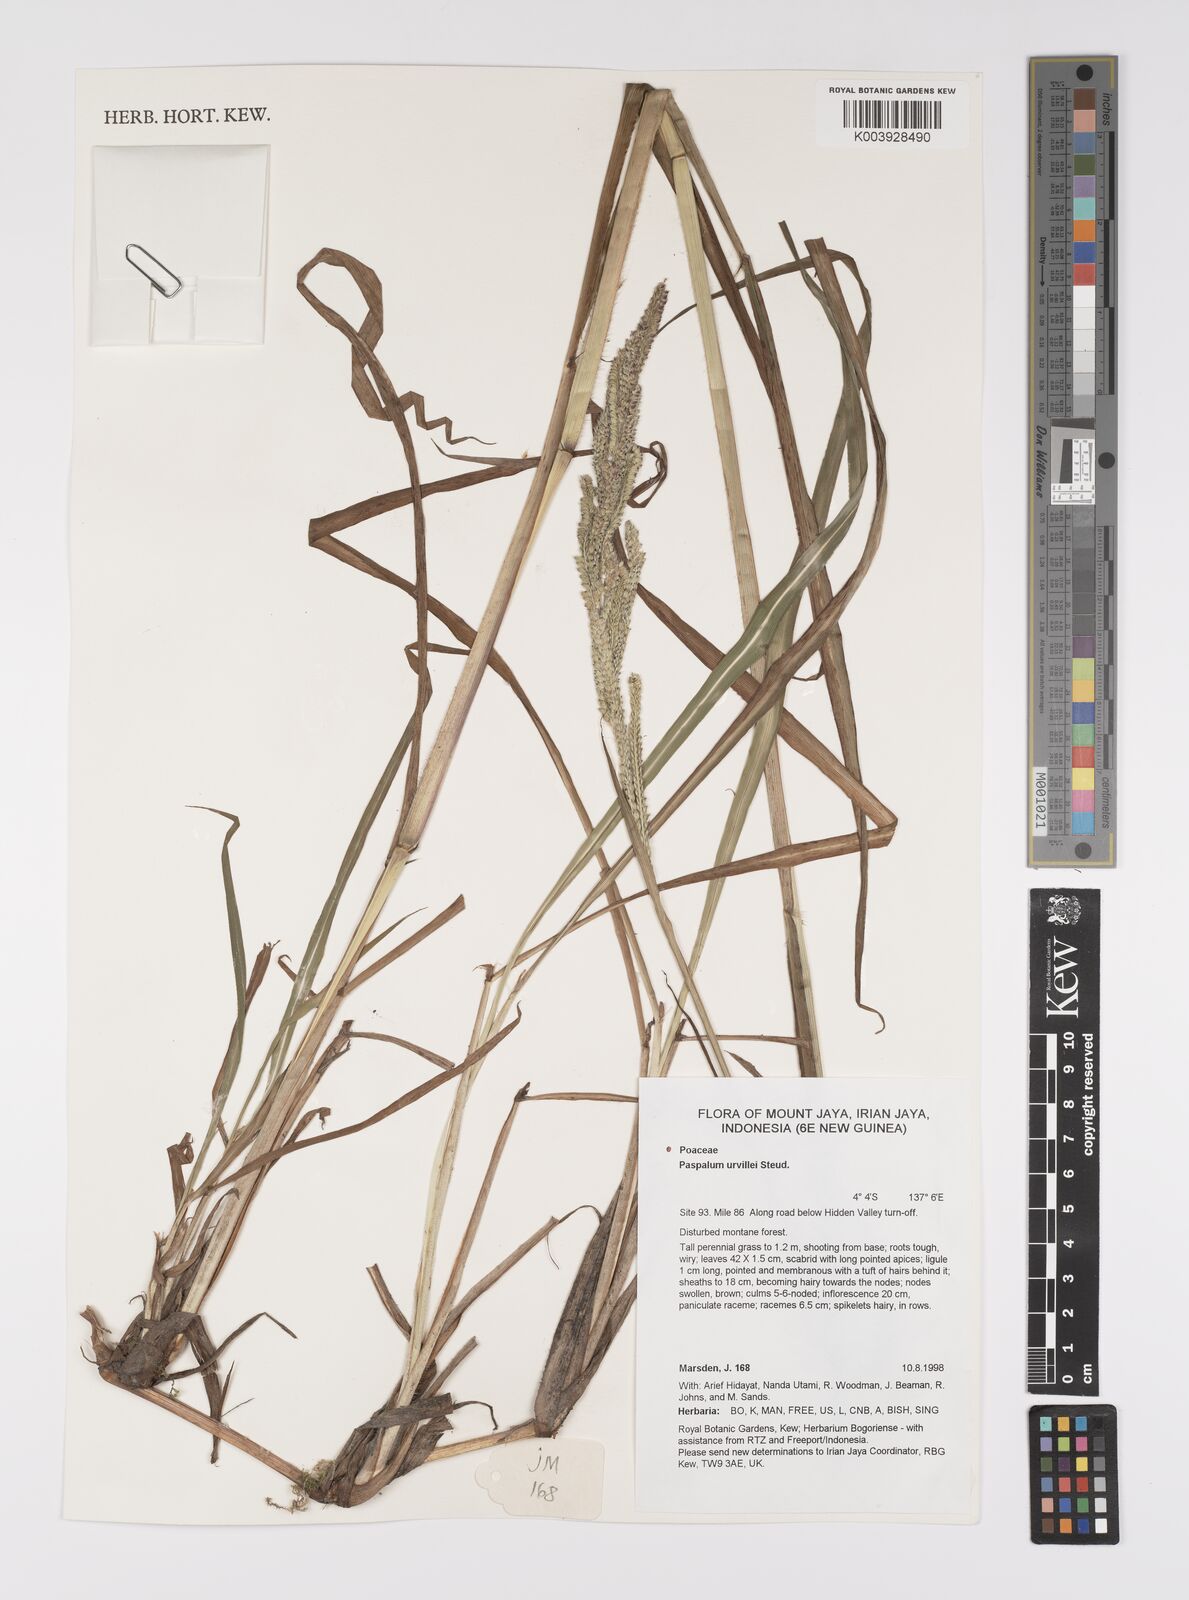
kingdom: Plantae
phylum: Tracheophyta
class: Liliopsida
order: Poales
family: Poaceae
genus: Paspalum
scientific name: Paspalum urvillei
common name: Vasey's grass
